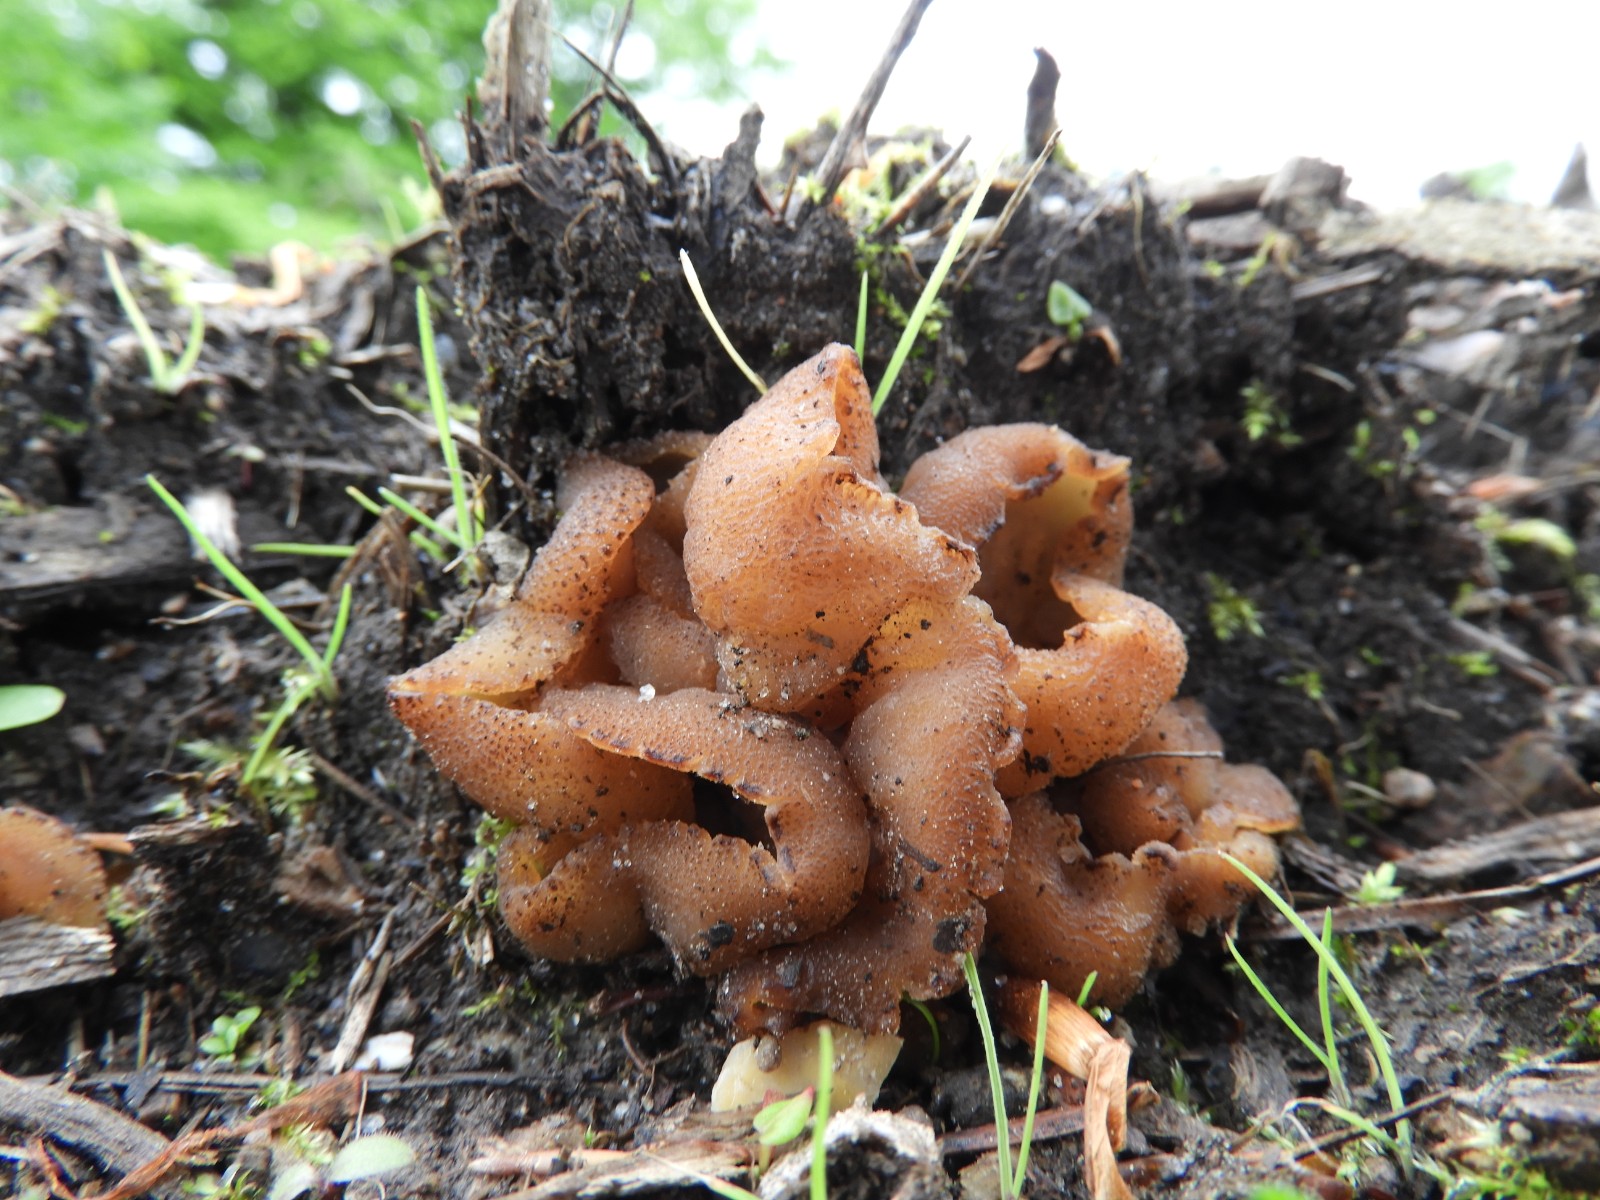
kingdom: Fungi
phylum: Ascomycota
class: Pezizomycetes
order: Pezizales
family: Pezizaceae
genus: Peziza
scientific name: Peziza vesiculosa
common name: blære-bægersvamp
